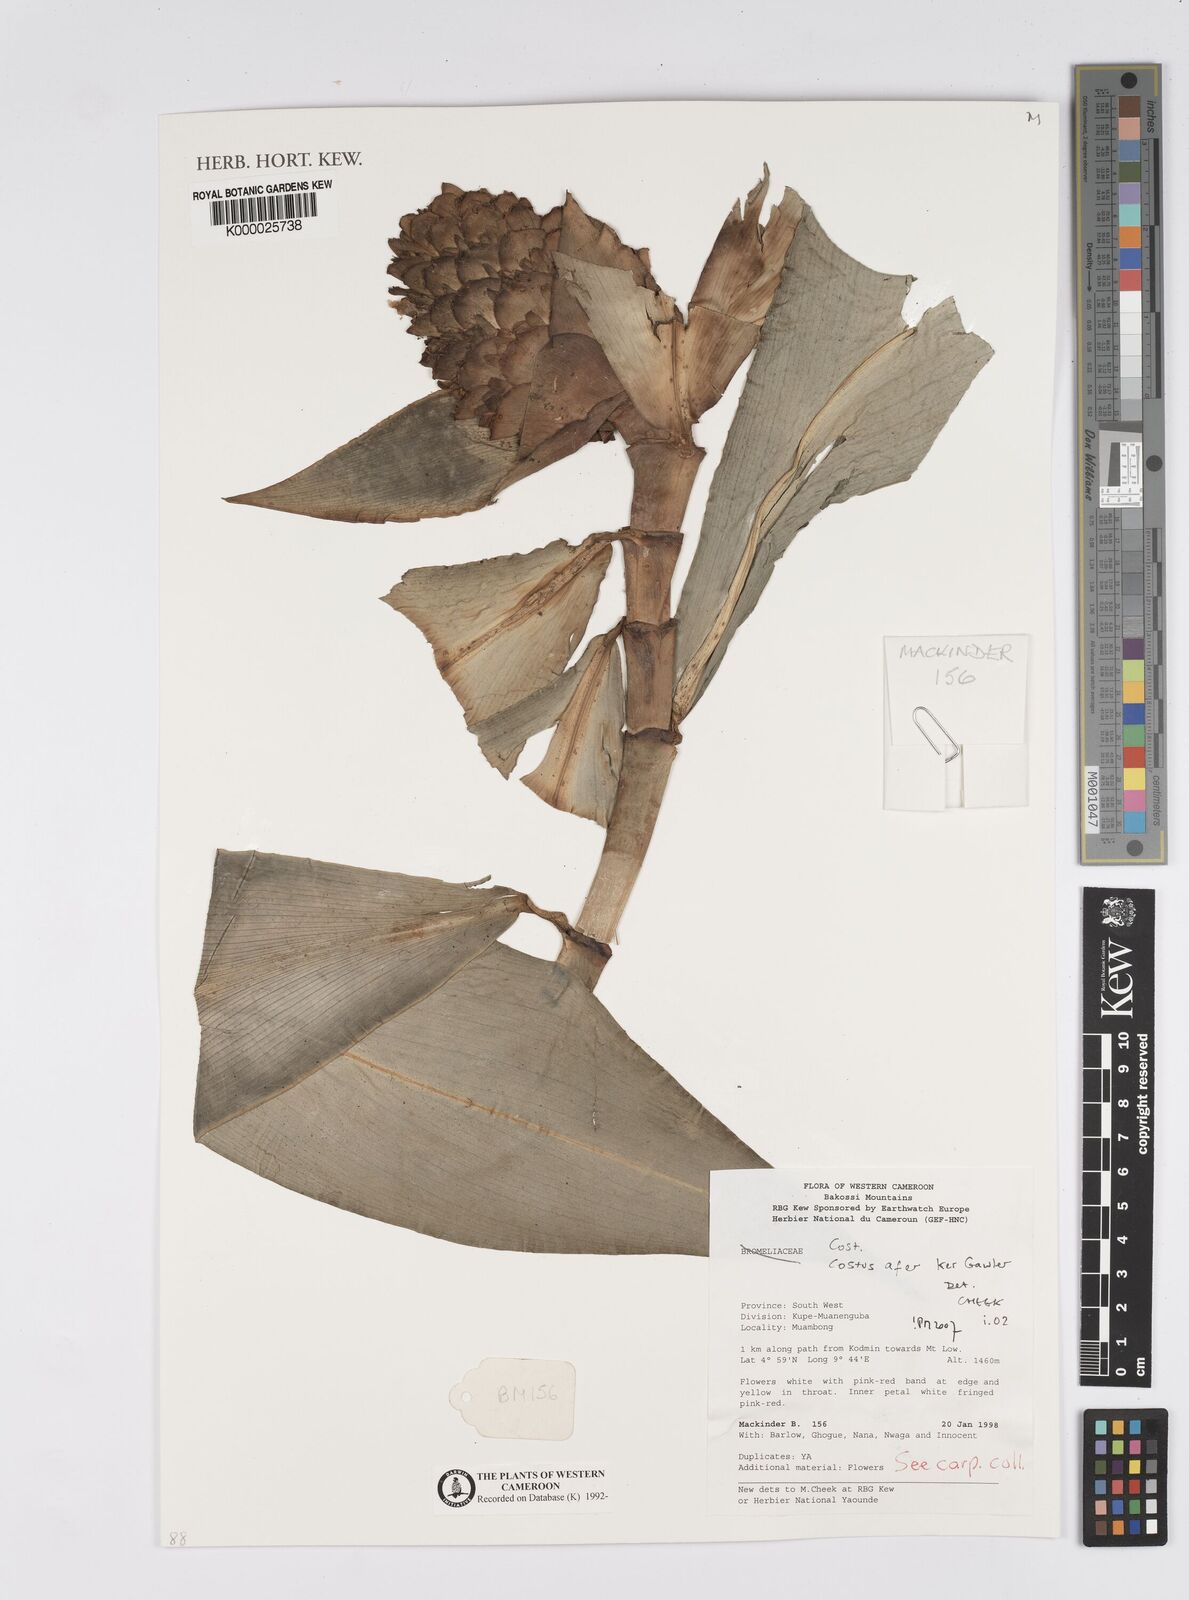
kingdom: Plantae
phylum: Tracheophyta
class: Liliopsida
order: Zingiberales
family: Costaceae
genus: Costus
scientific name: Costus afer
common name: Spiral-ginger
